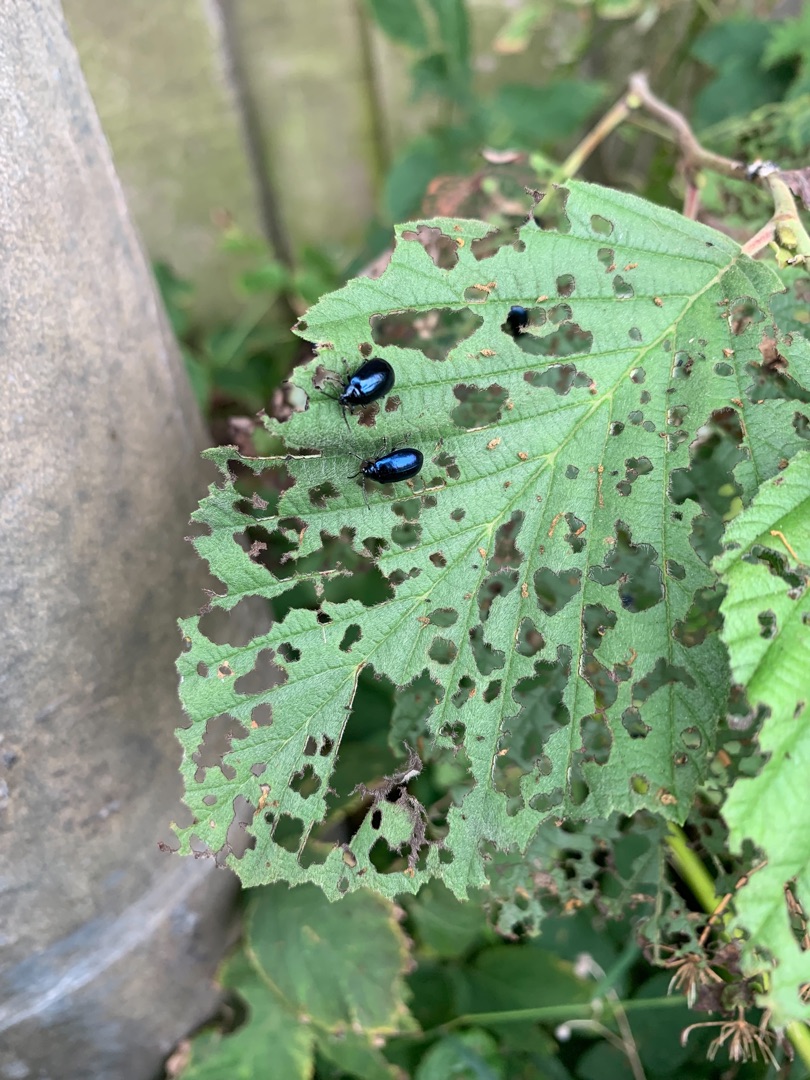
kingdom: Animalia
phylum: Arthropoda
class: Insecta
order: Coleoptera
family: Chrysomelidae
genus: Agelastica
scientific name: Agelastica alni
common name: Ellebladbille
